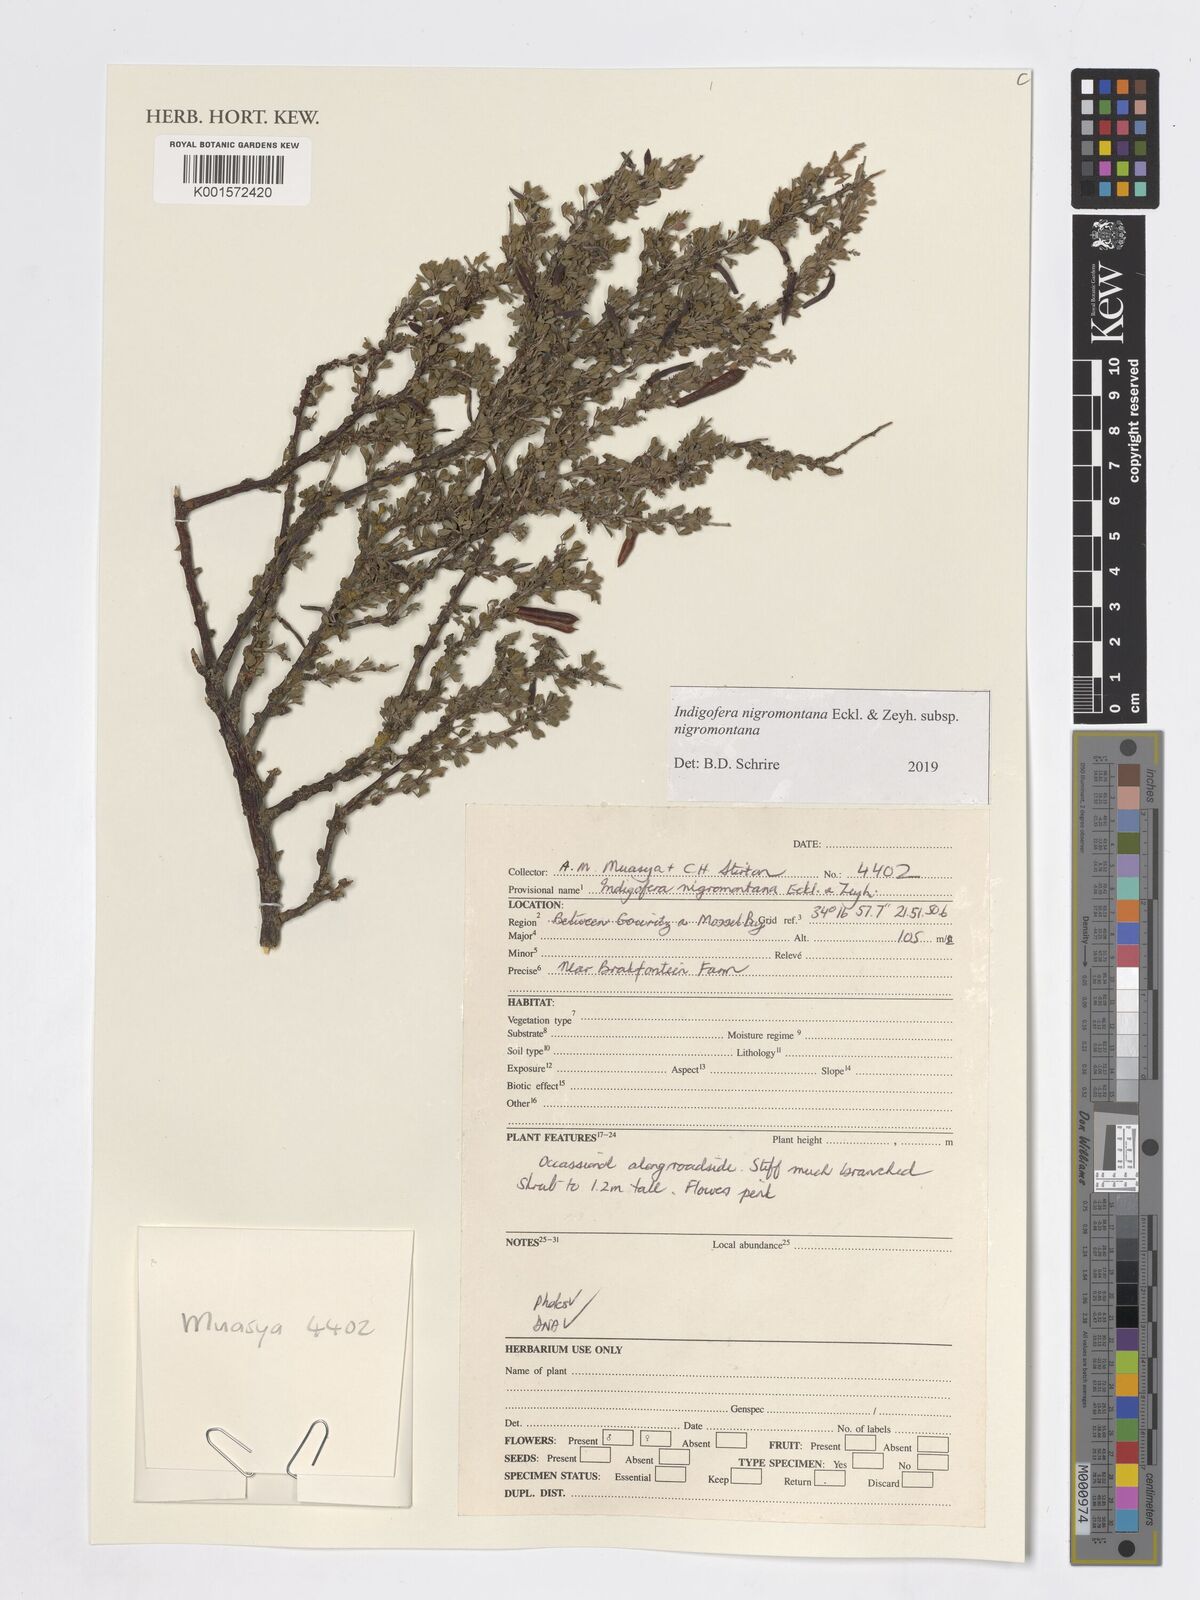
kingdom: Plantae
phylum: Tracheophyta
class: Magnoliopsida
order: Fabales
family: Fabaceae
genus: Indigofera
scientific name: Indigofera nigromontana
